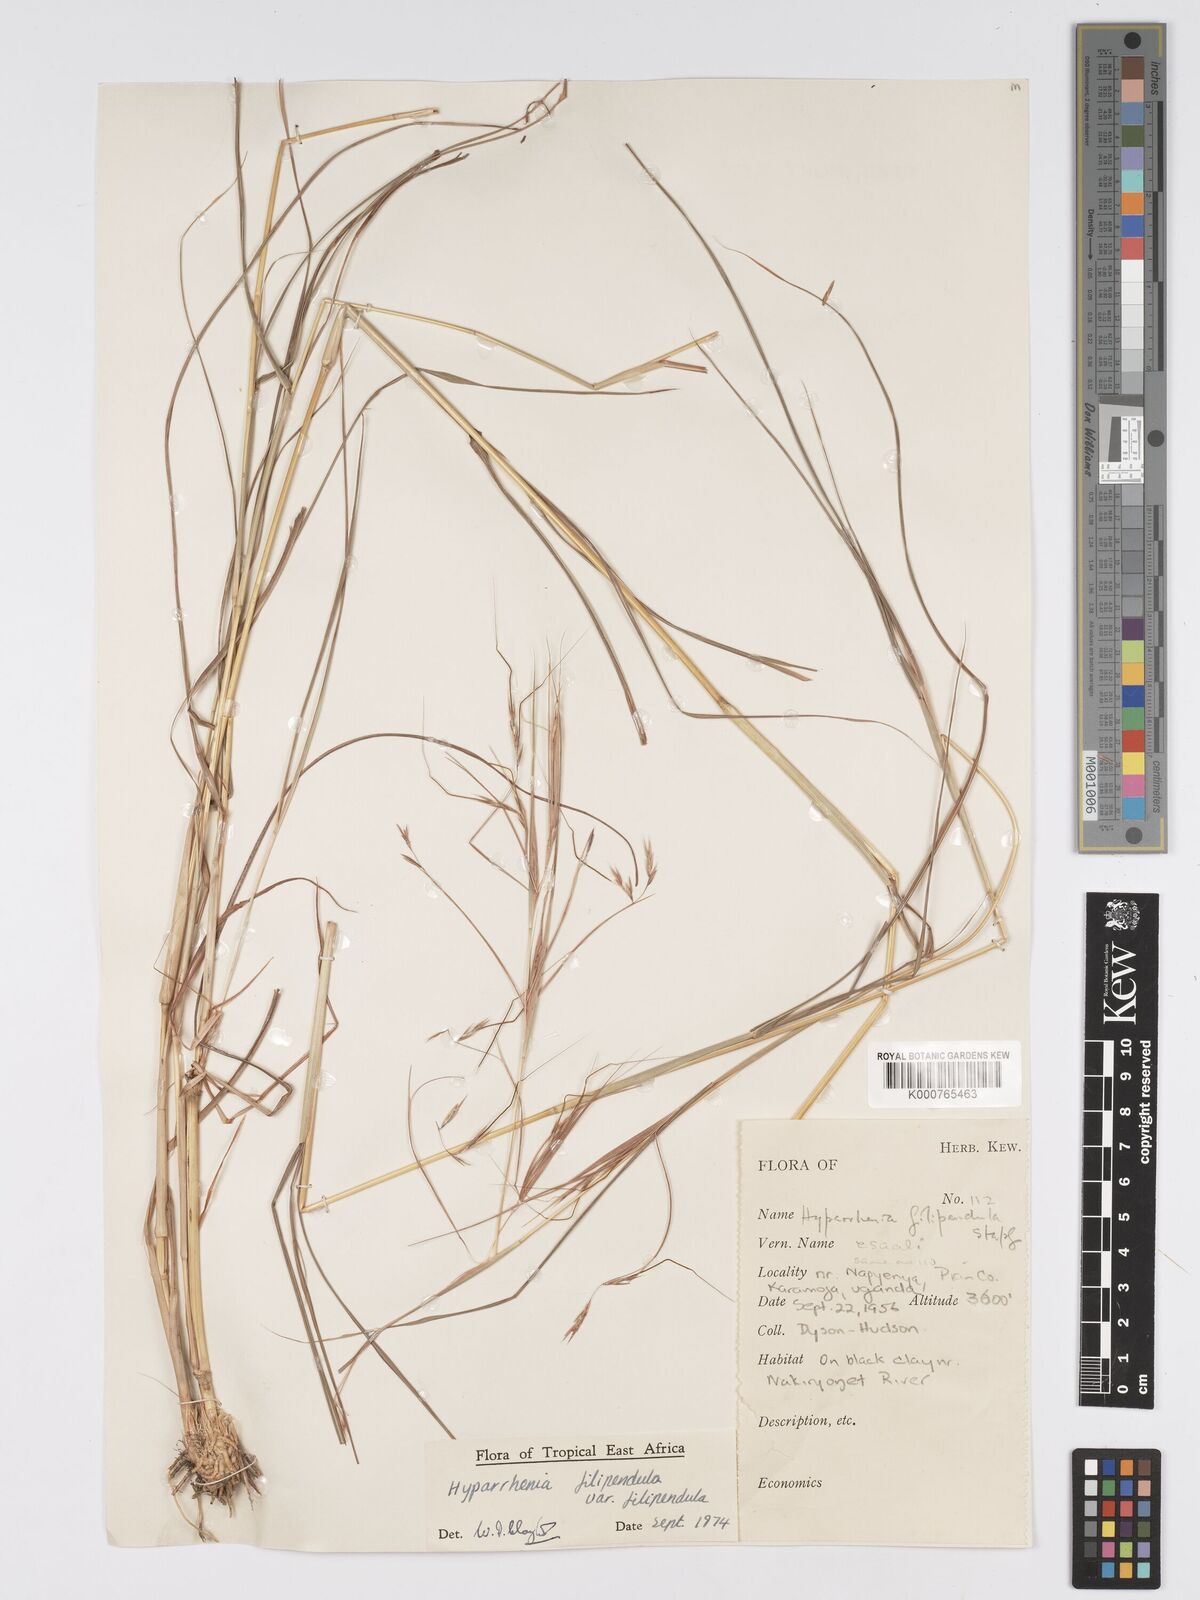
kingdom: Plantae
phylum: Tracheophyta
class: Liliopsida
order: Poales
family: Poaceae
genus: Hyparrhenia
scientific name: Hyparrhenia filipendula
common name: Tambookie grass
